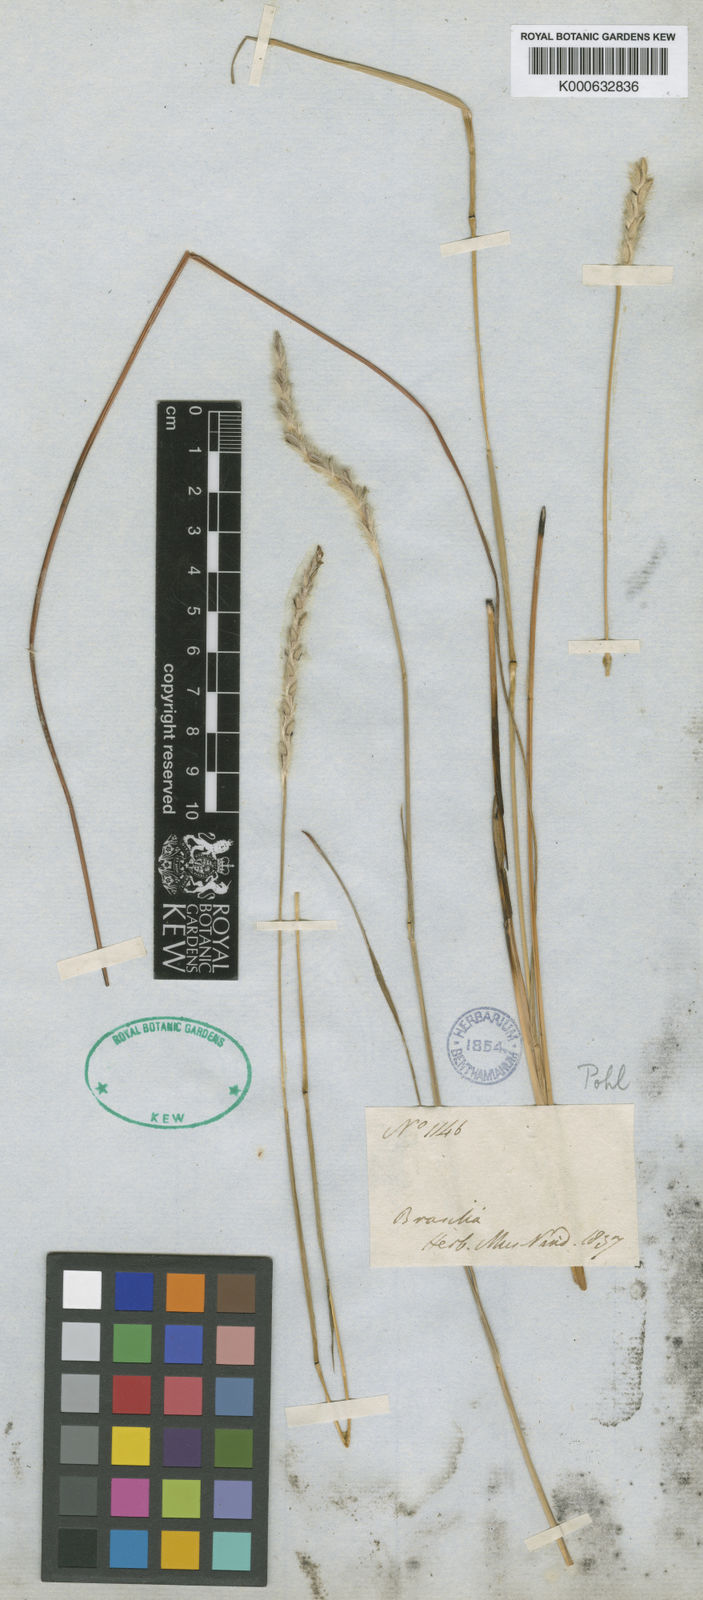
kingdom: Plantae
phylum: Tracheophyta
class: Liliopsida
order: Poales
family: Poaceae
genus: Elionurus
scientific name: Elionurus muticus
